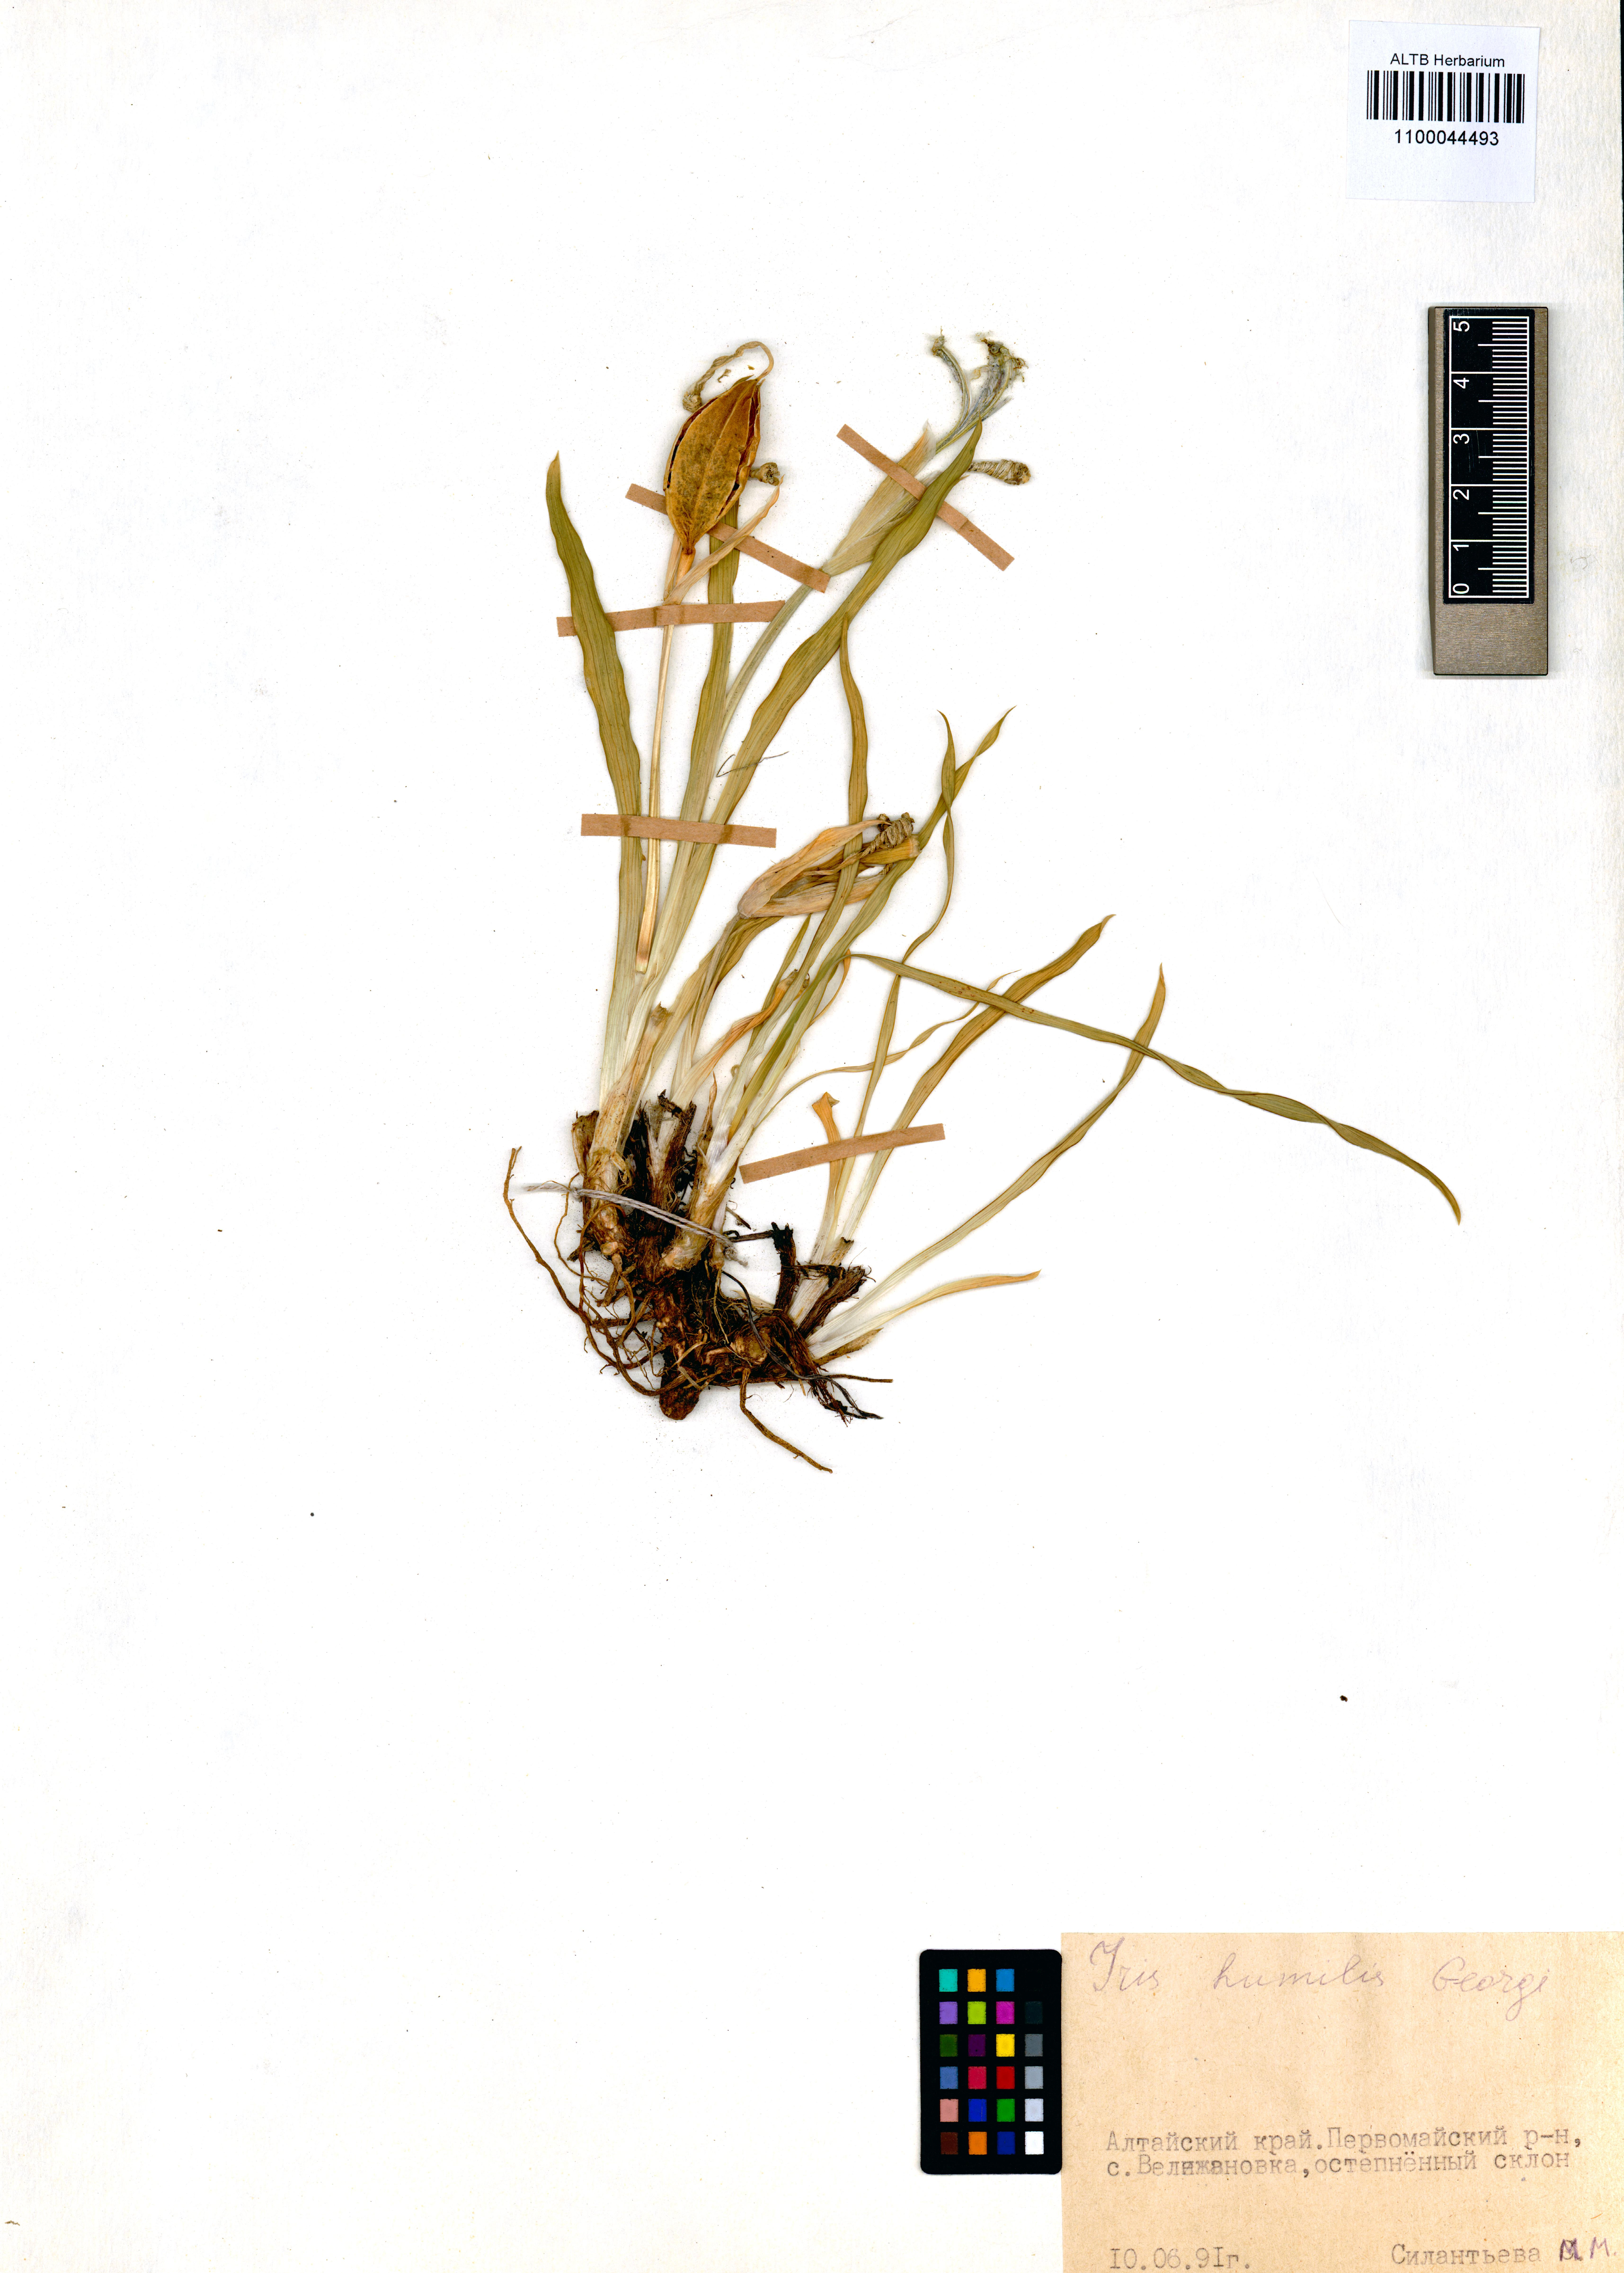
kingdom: Plantae
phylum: Tracheophyta
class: Liliopsida
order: Asparagales
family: Iridaceae
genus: Iris
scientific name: Iris humilis
